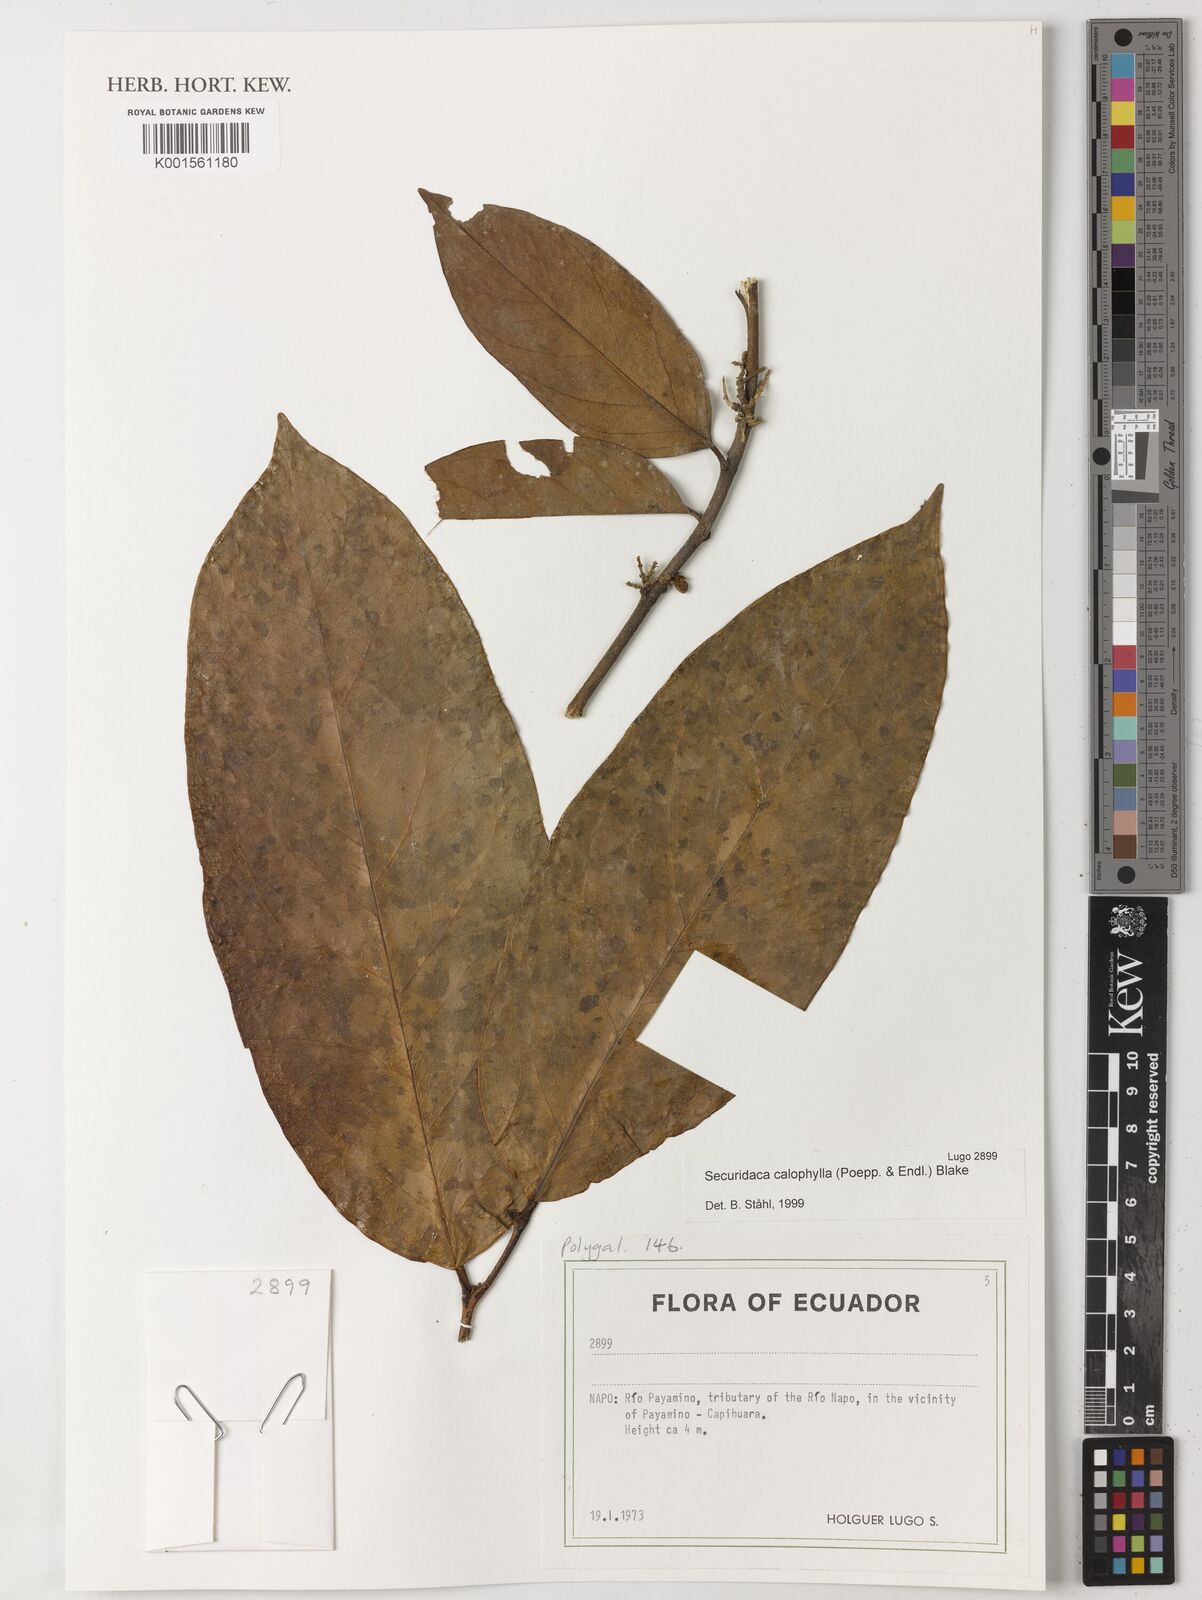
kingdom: Plantae
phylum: Tracheophyta
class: Magnoliopsida
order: Fabales
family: Polygalaceae
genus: Securidaca
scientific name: Securidaca calophylla
